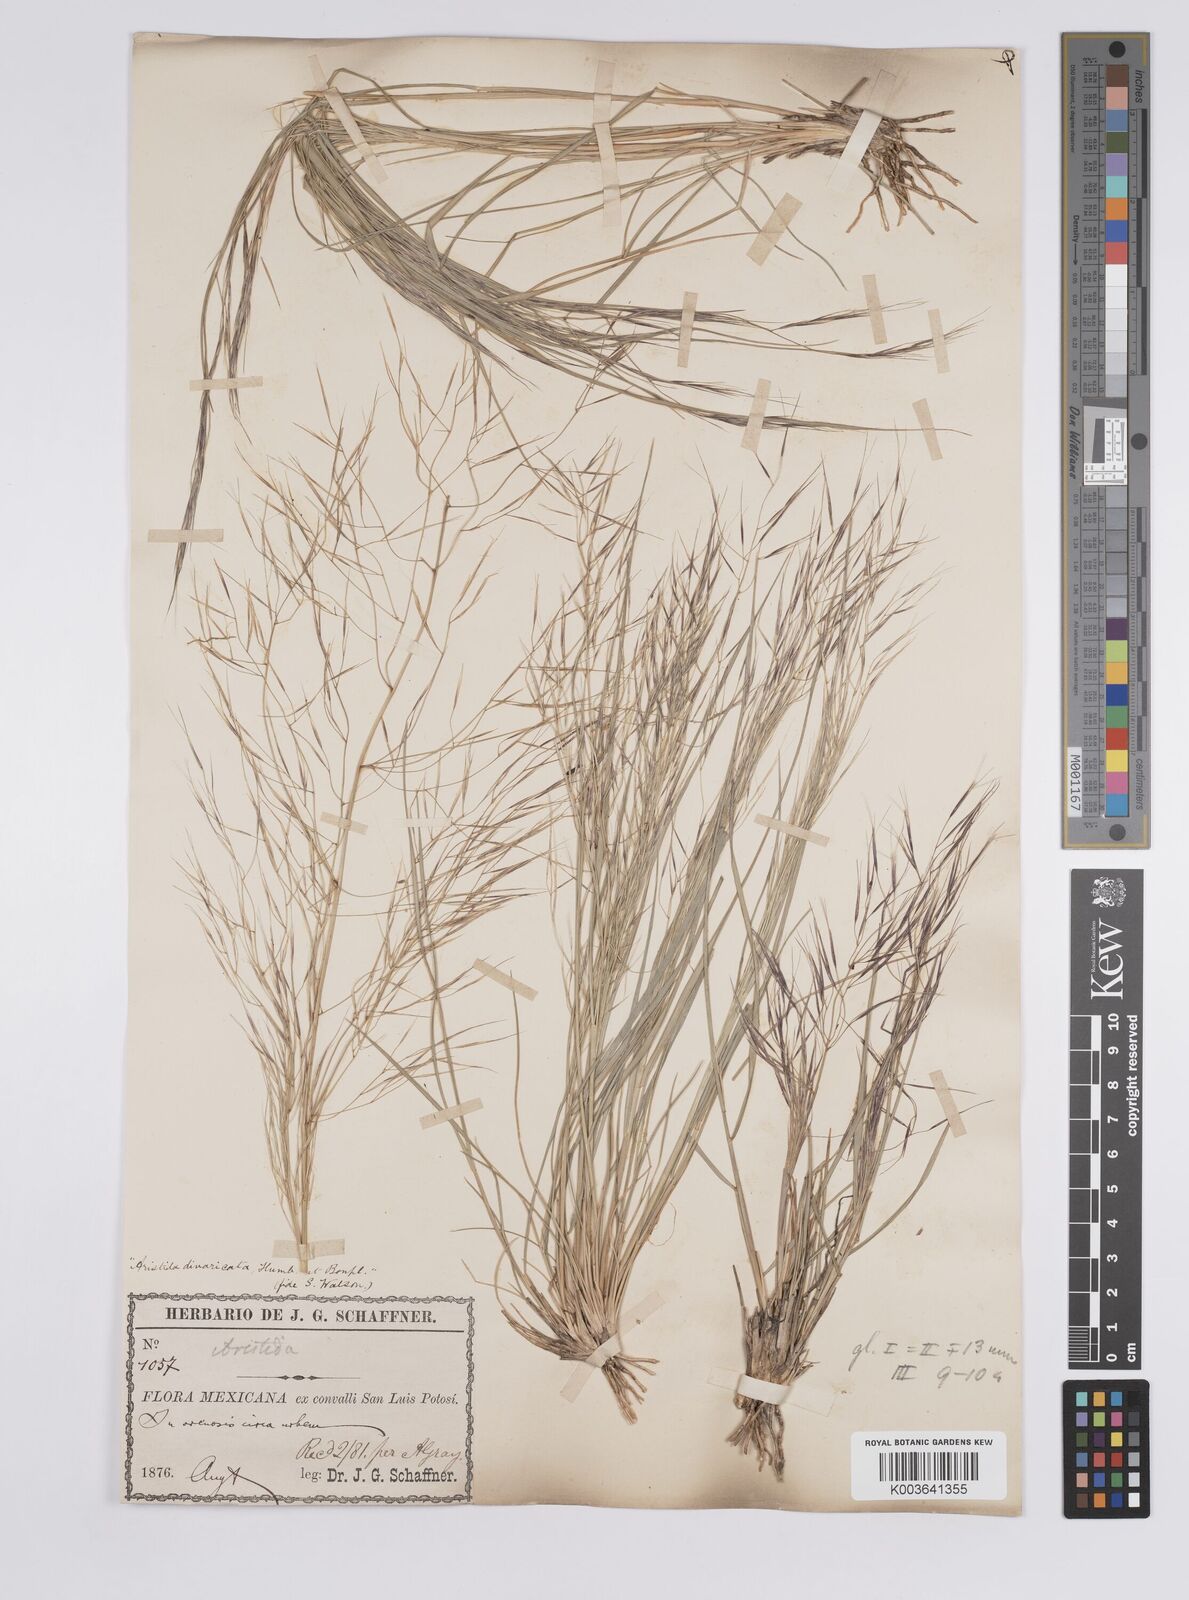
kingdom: Plantae
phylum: Tracheophyta
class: Liliopsida
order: Poales
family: Poaceae
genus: Aristida
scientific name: Aristida divaricata
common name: Poverty grass
